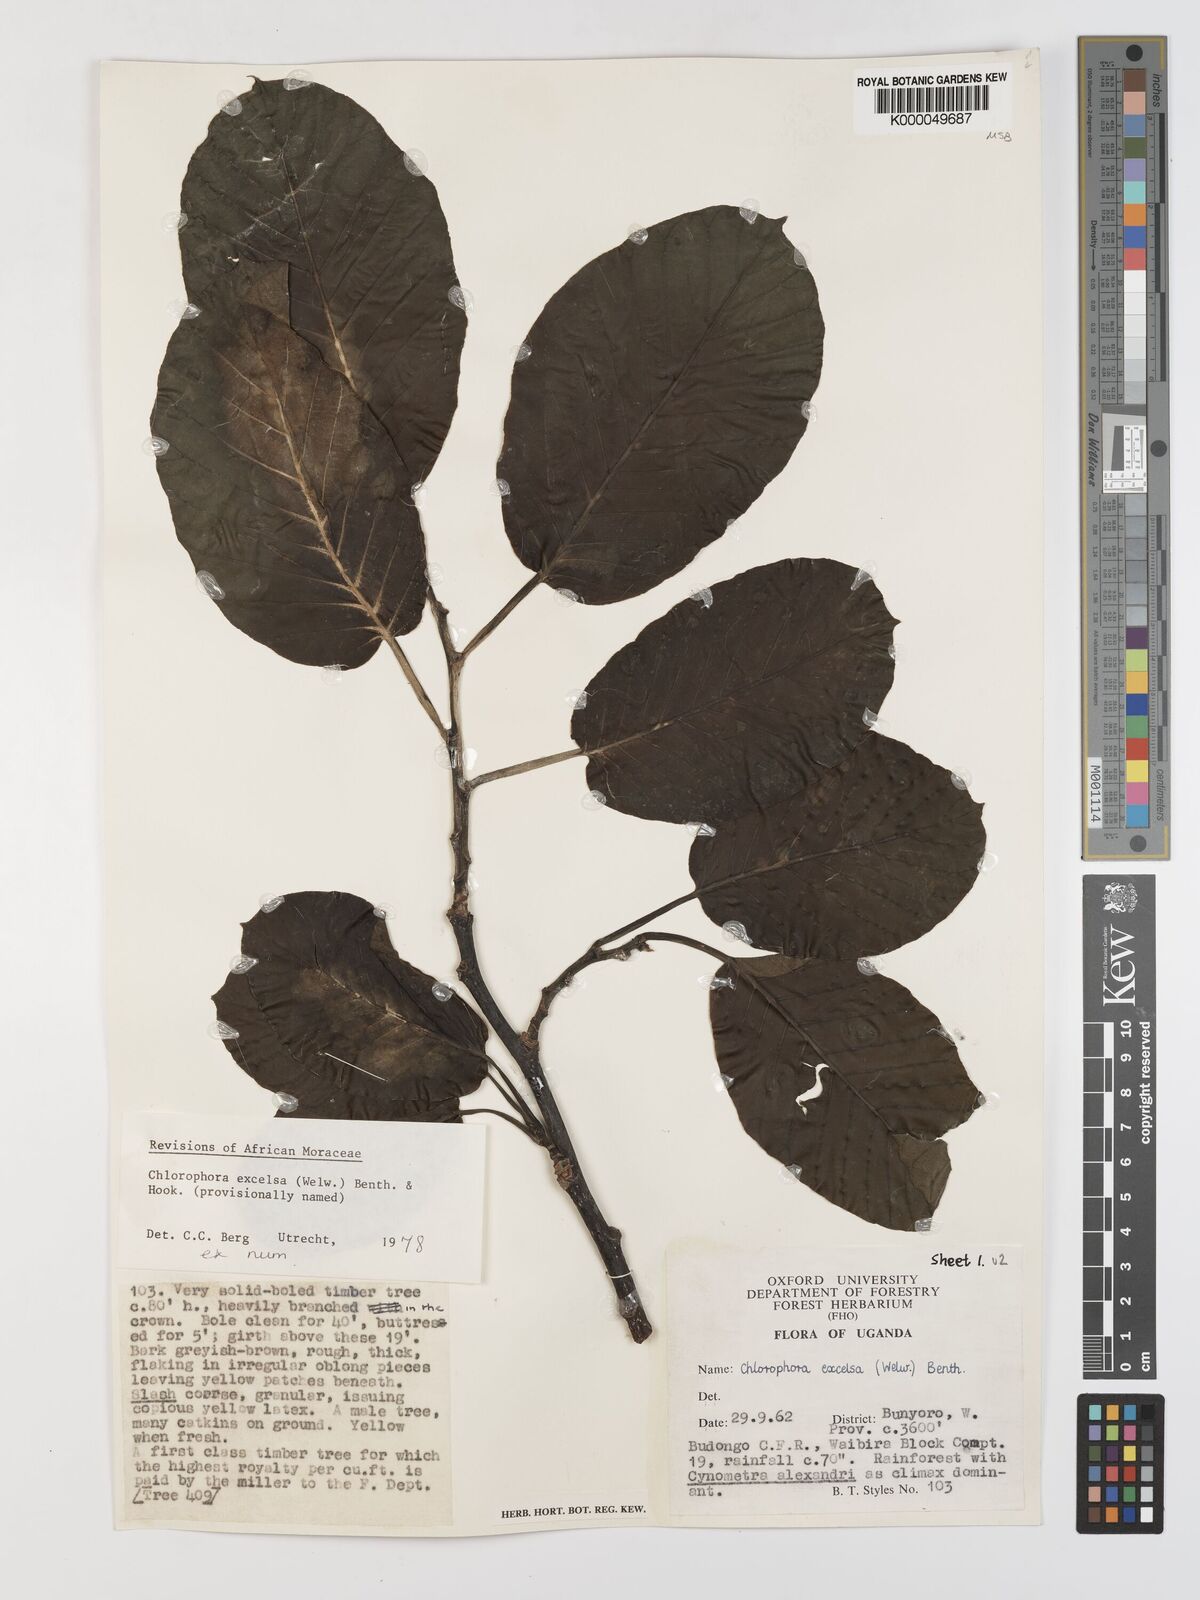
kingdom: Plantae
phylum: Tracheophyta
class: Magnoliopsida
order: Rosales
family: Moraceae
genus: Milicia
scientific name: Milicia excelsa
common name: African teak
